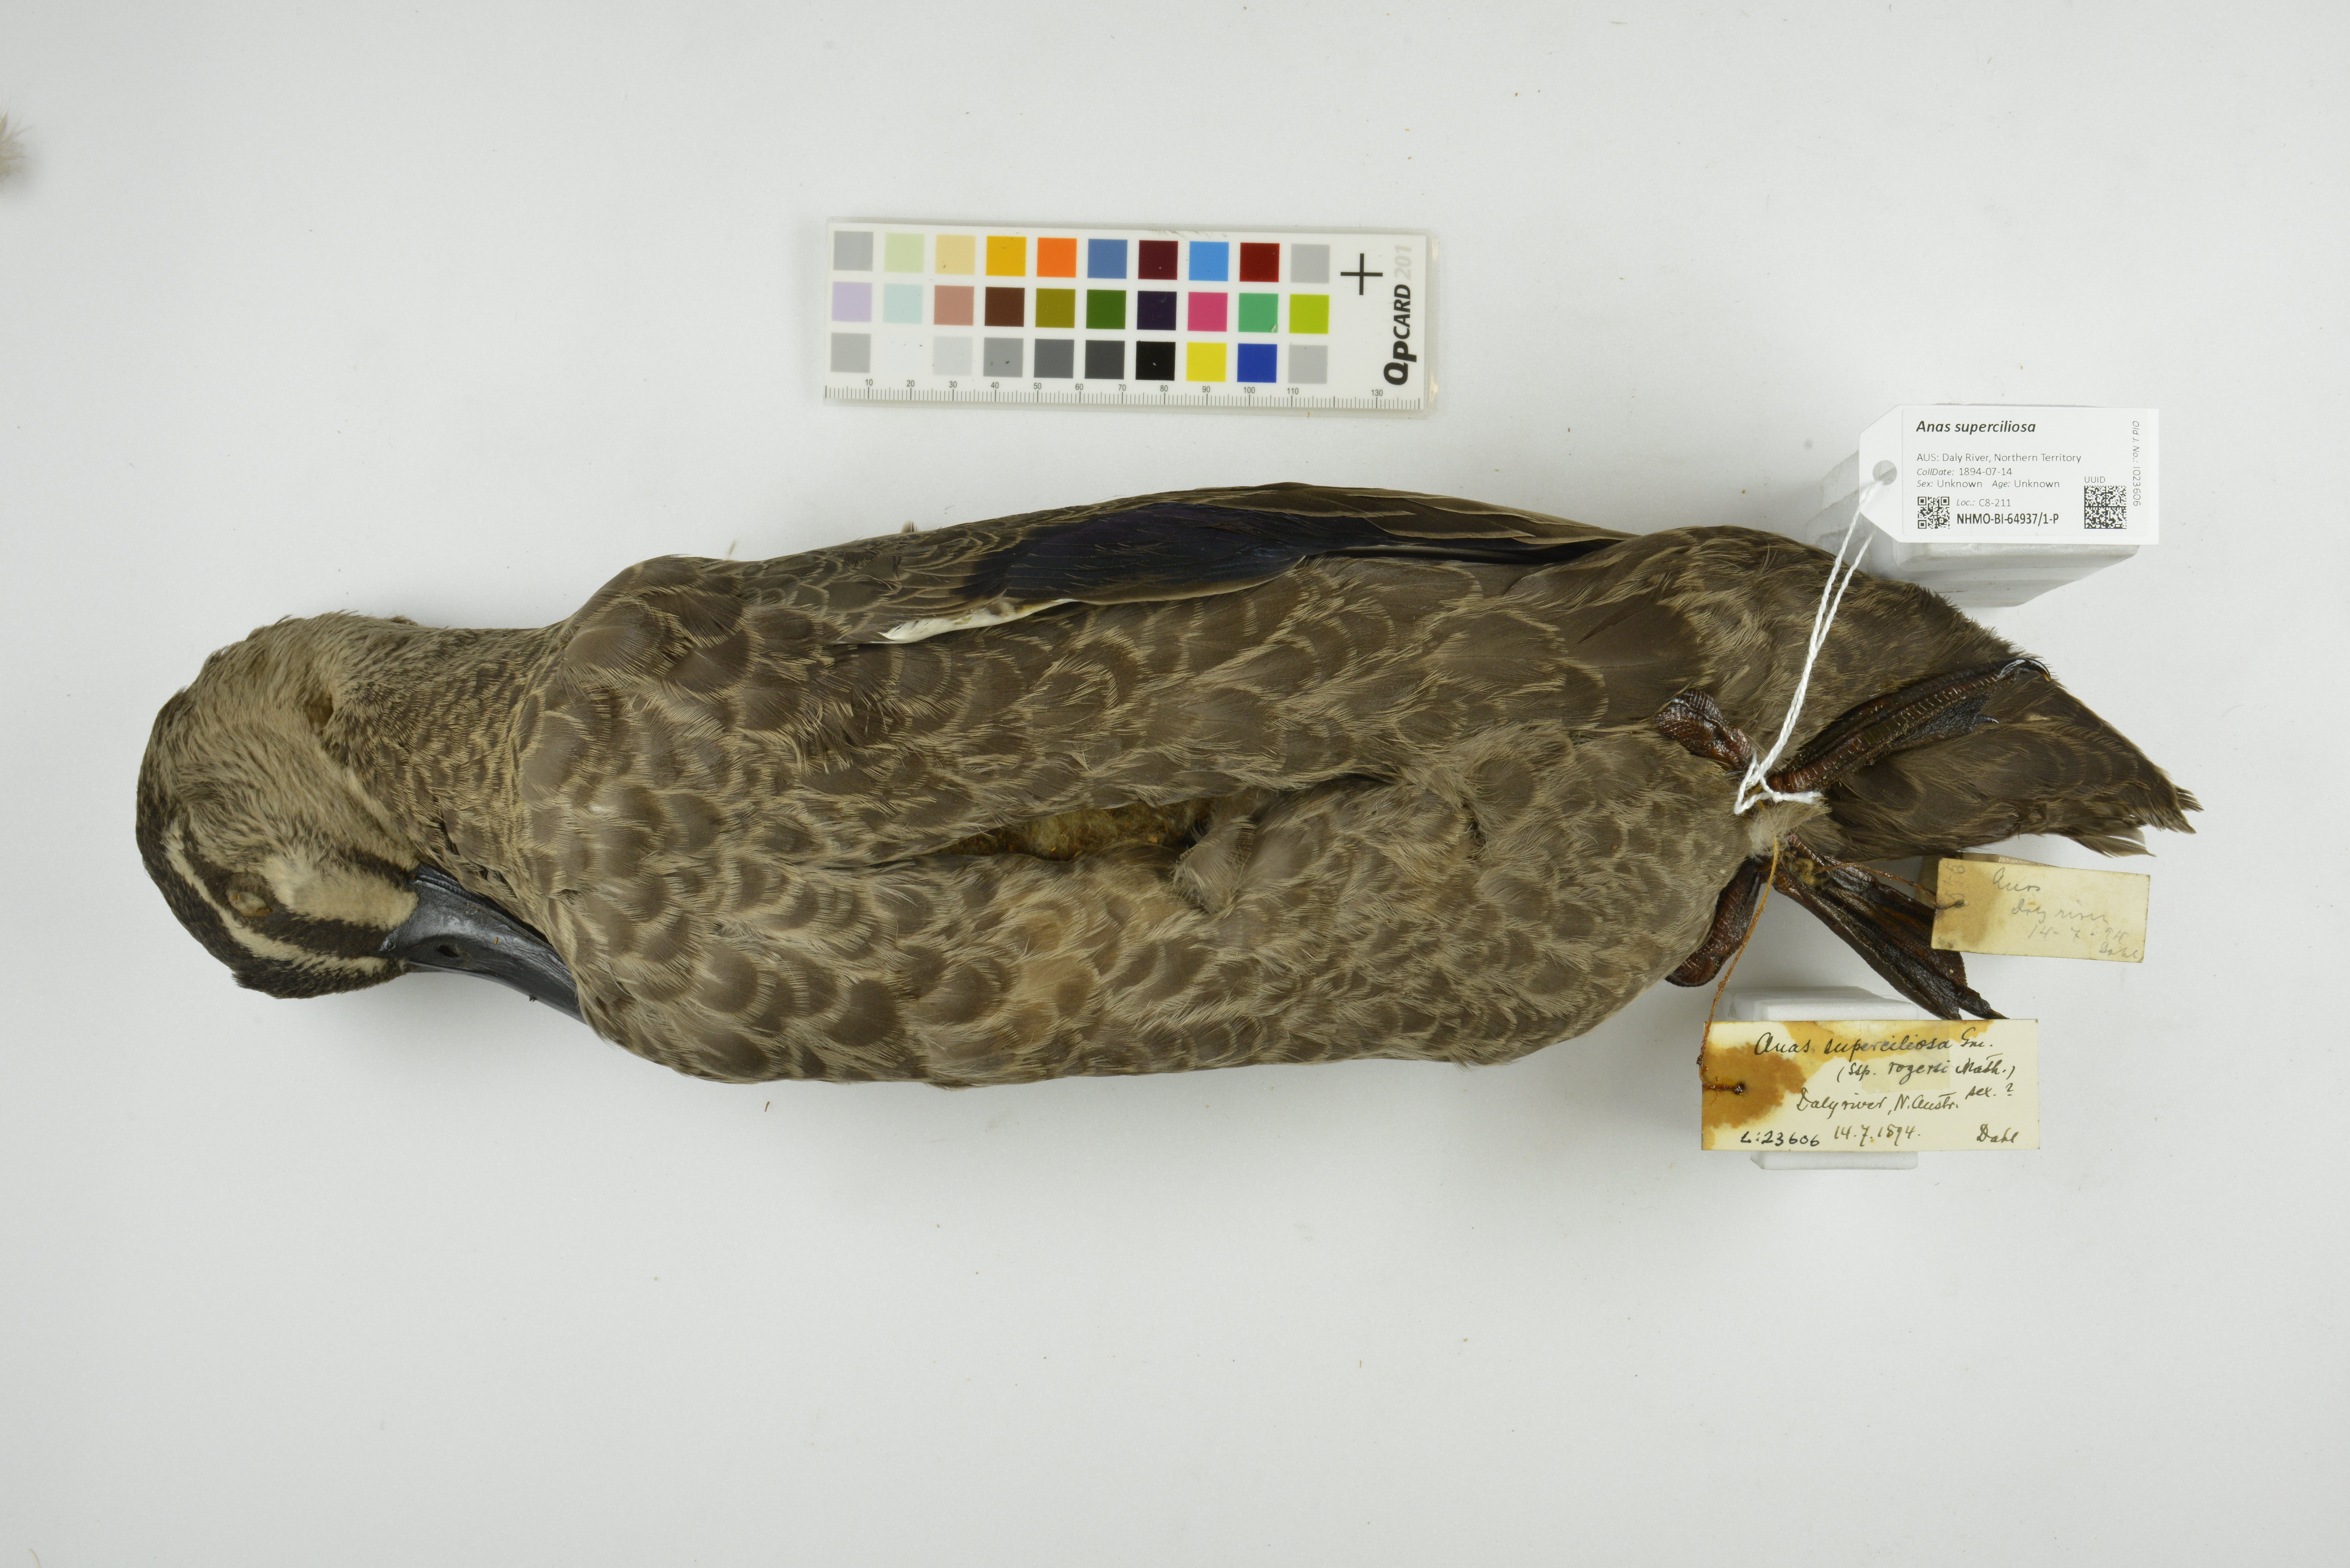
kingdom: Animalia
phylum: Chordata
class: Aves
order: Anseriformes
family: Anatidae
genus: Anas
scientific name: Anas superciliosa
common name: Pacific black duck
